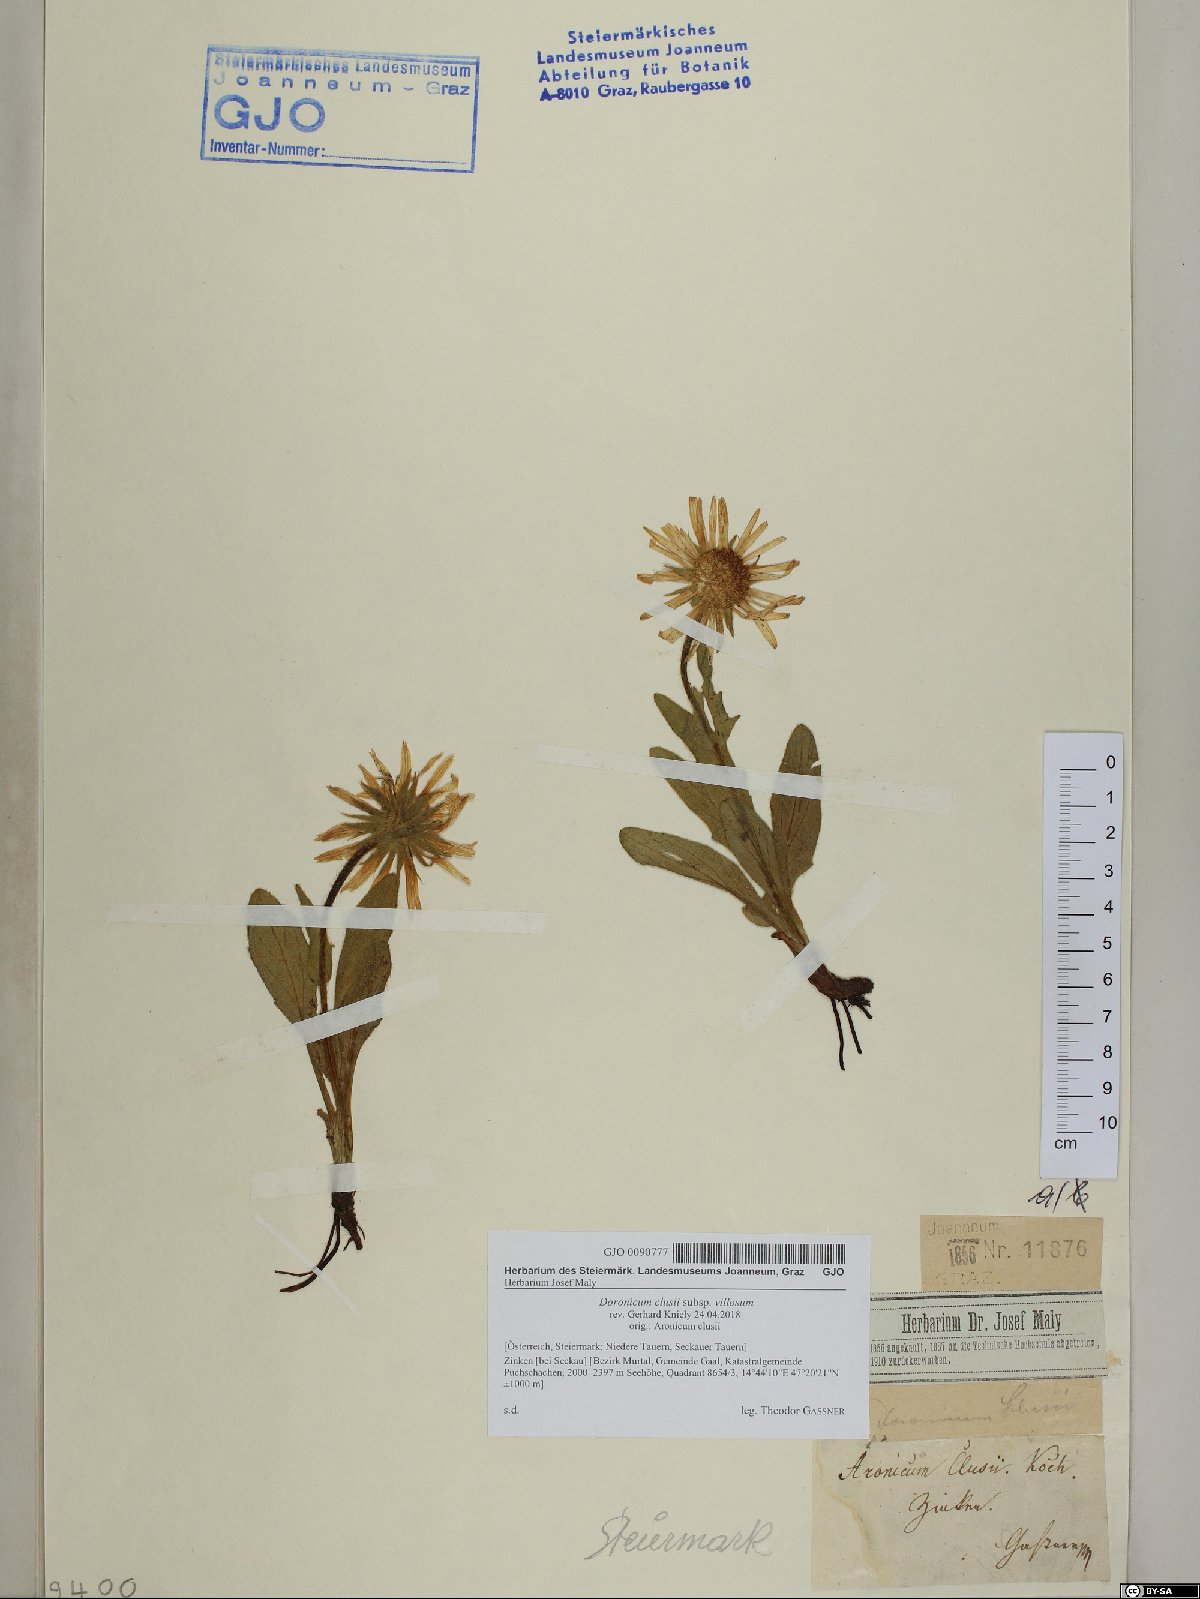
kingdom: Plantae
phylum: Tracheophyta
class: Magnoliopsida
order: Asterales
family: Asteraceae
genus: Doronicum
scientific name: Doronicum clusii
